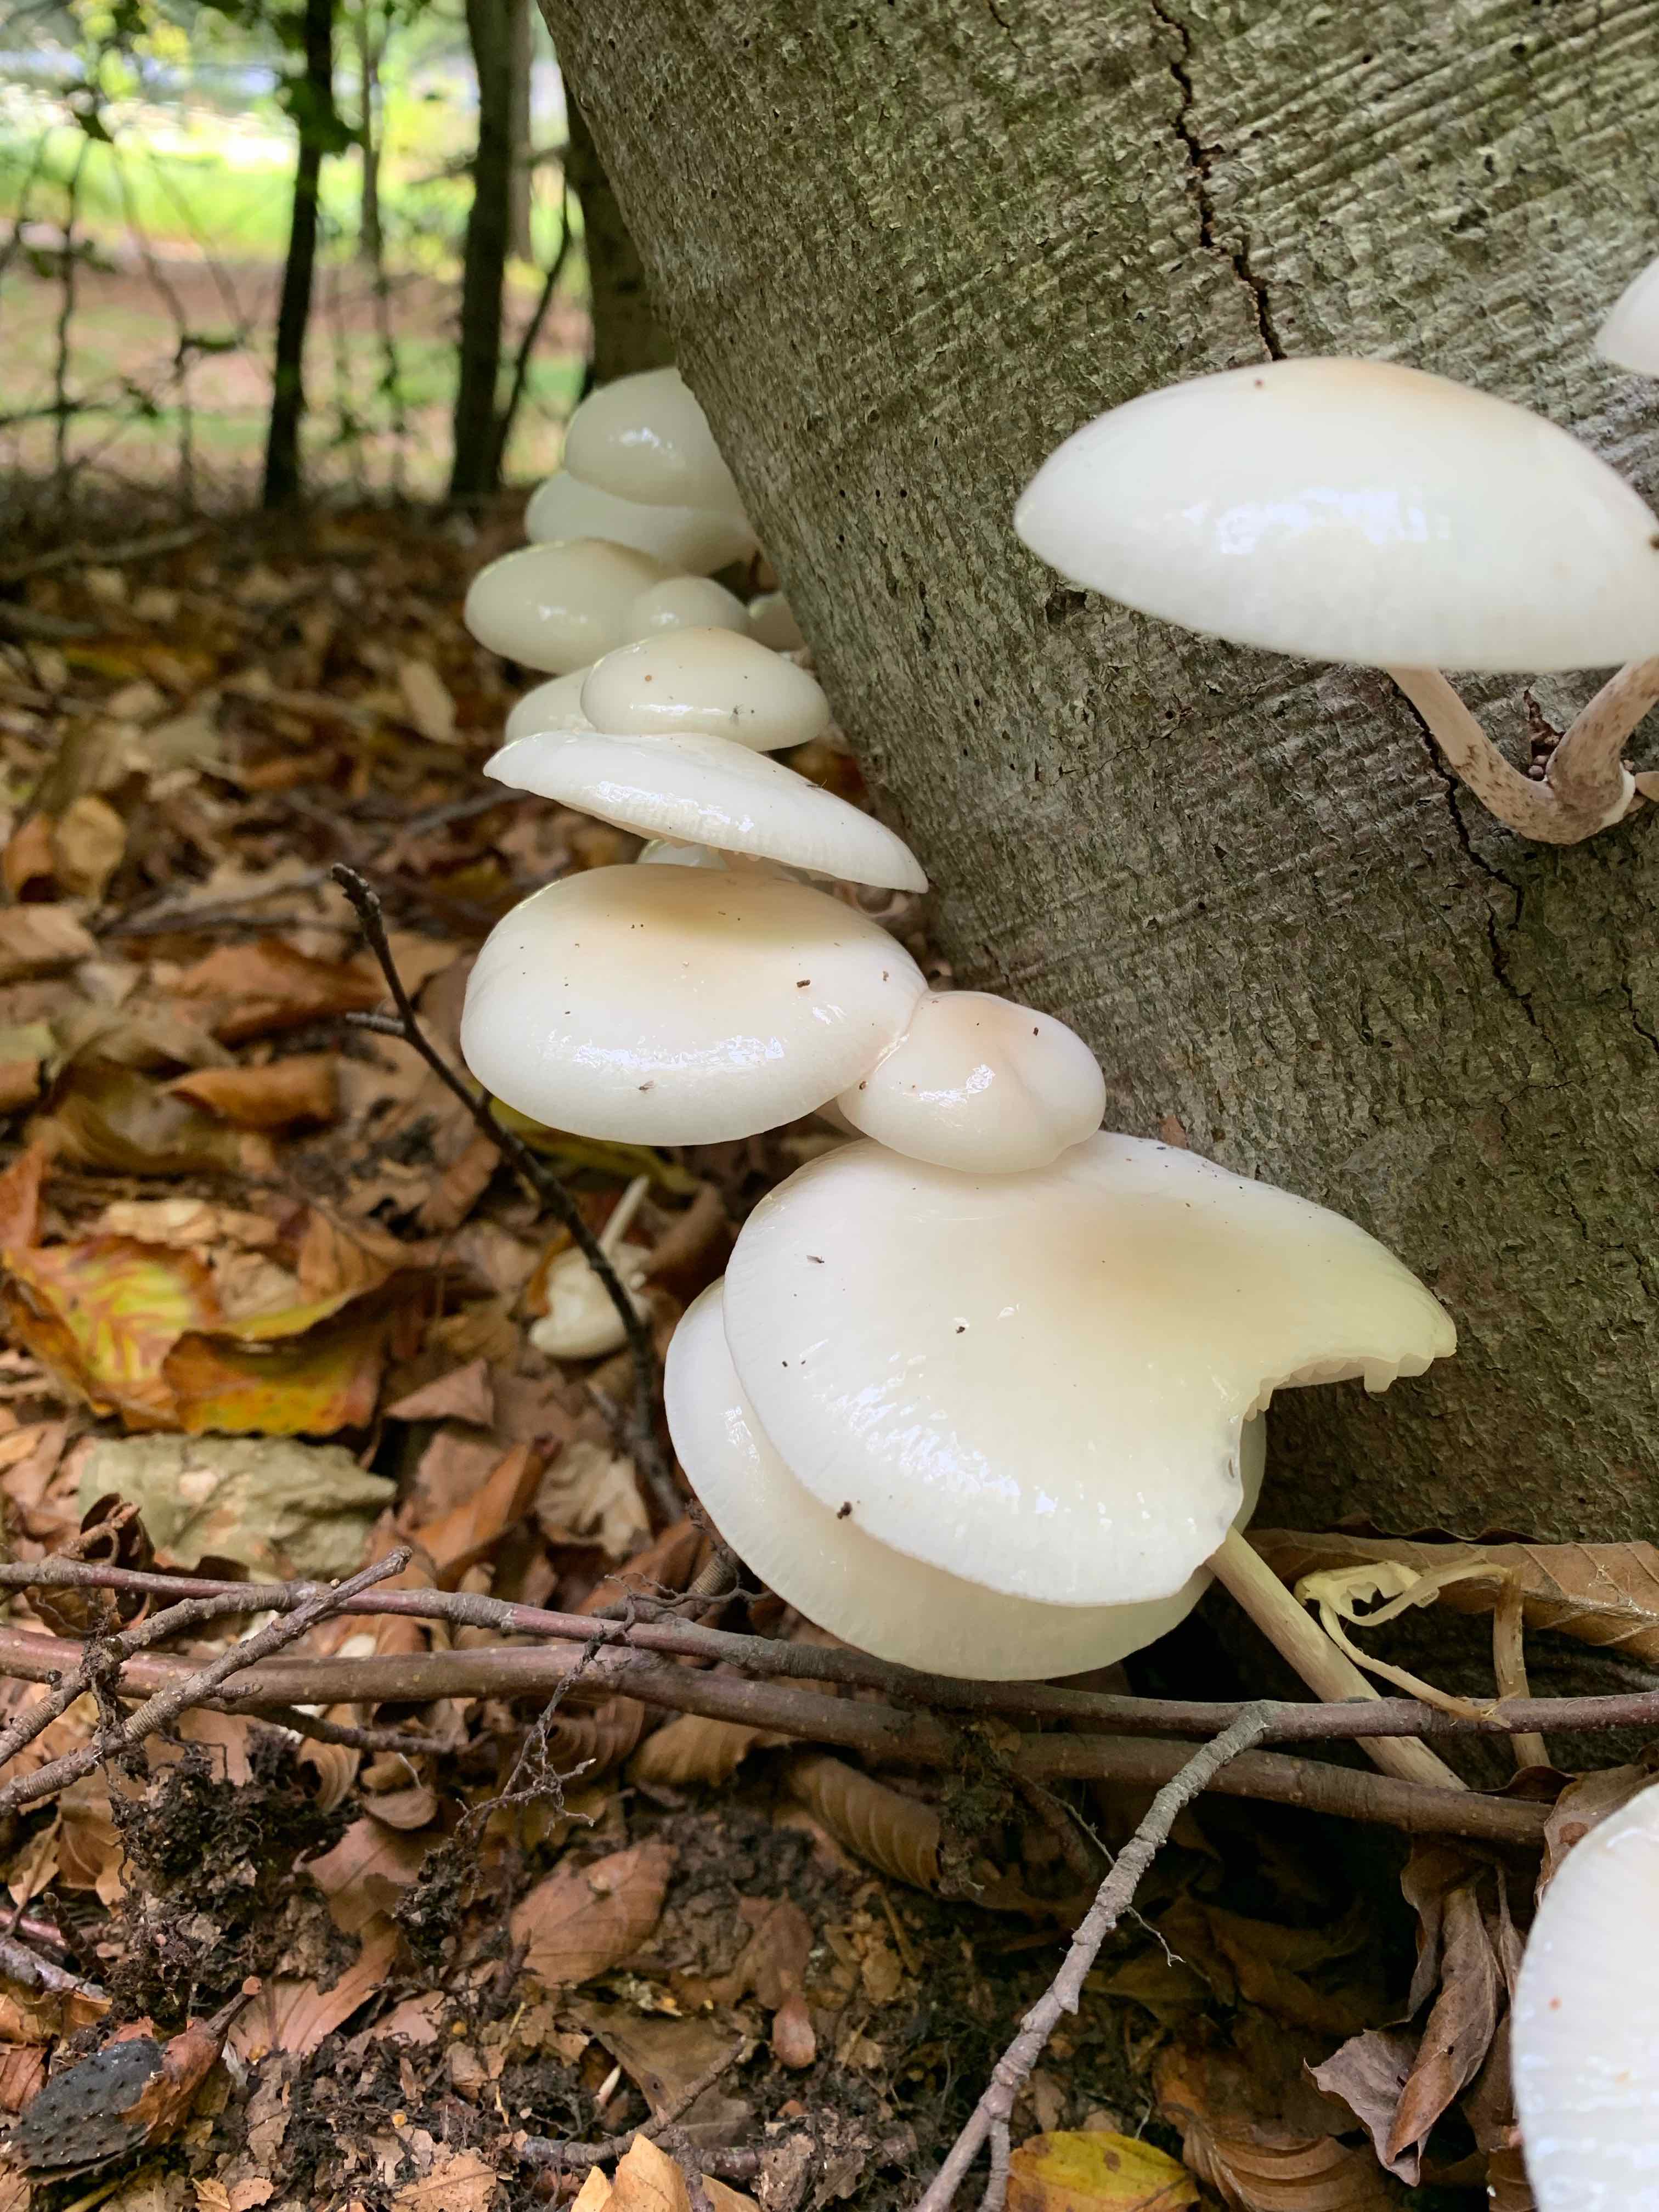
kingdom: Fungi
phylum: Basidiomycota
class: Agaricomycetes
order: Agaricales
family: Physalacriaceae
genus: Mucidula
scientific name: Mucidula mucida
